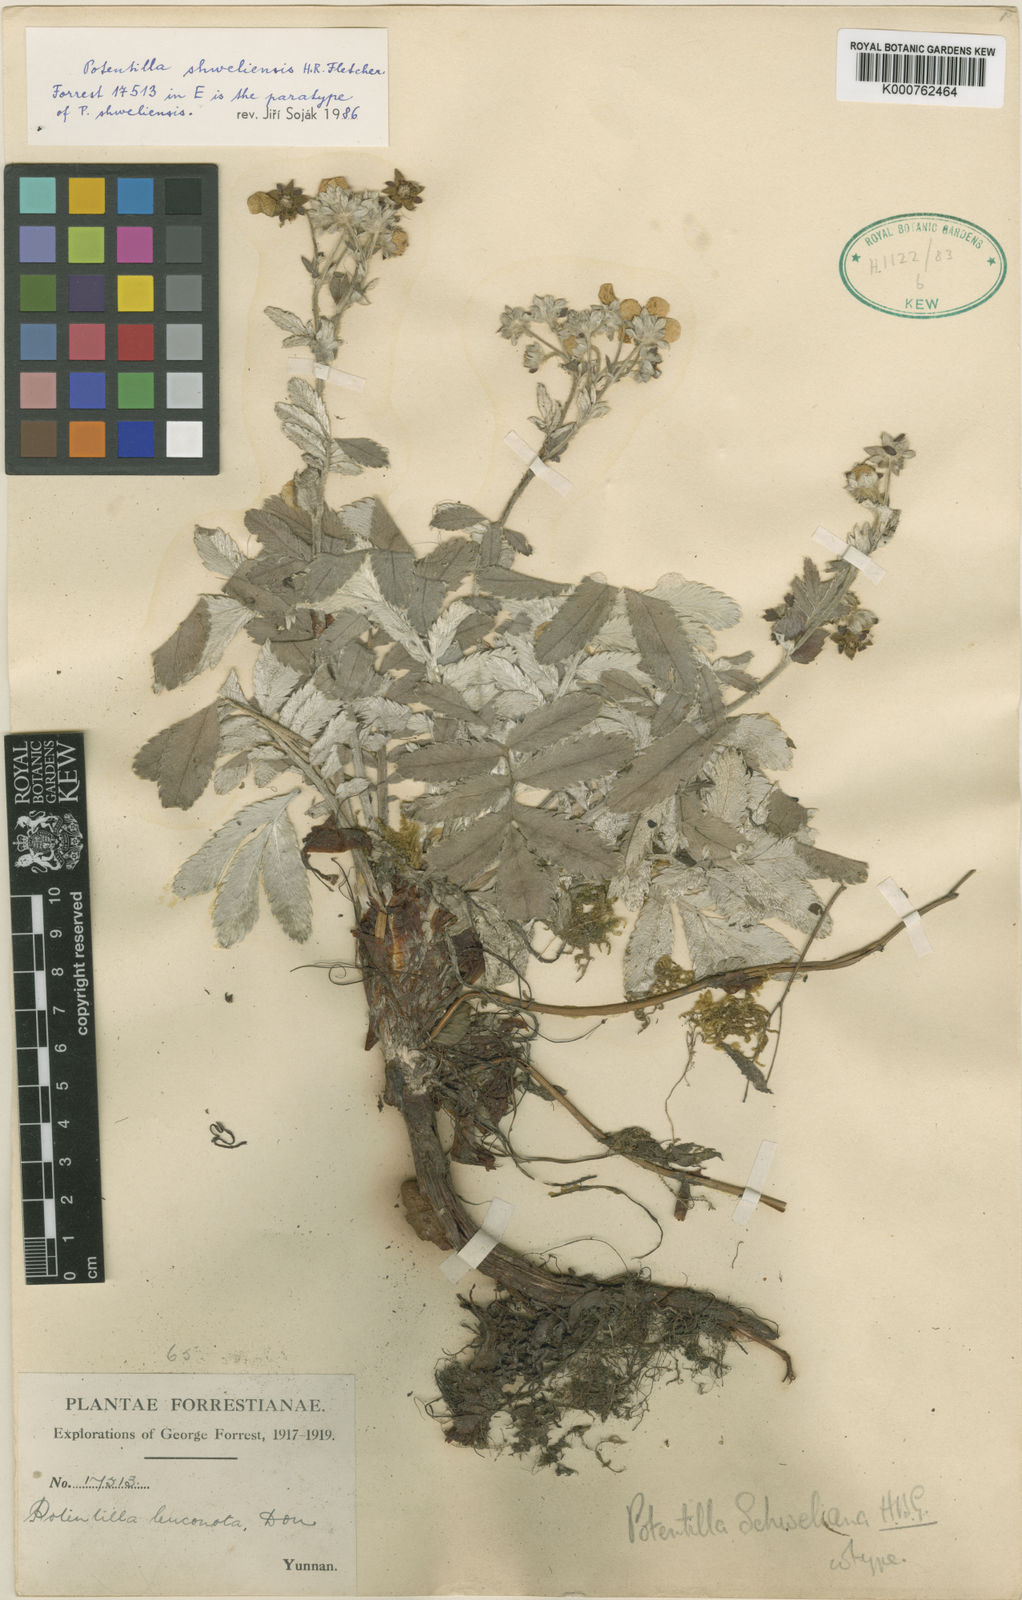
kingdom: Plantae
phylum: Tracheophyta
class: Magnoliopsida
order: Rosales
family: Rosaceae
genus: Potentilla
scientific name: Potentilla
